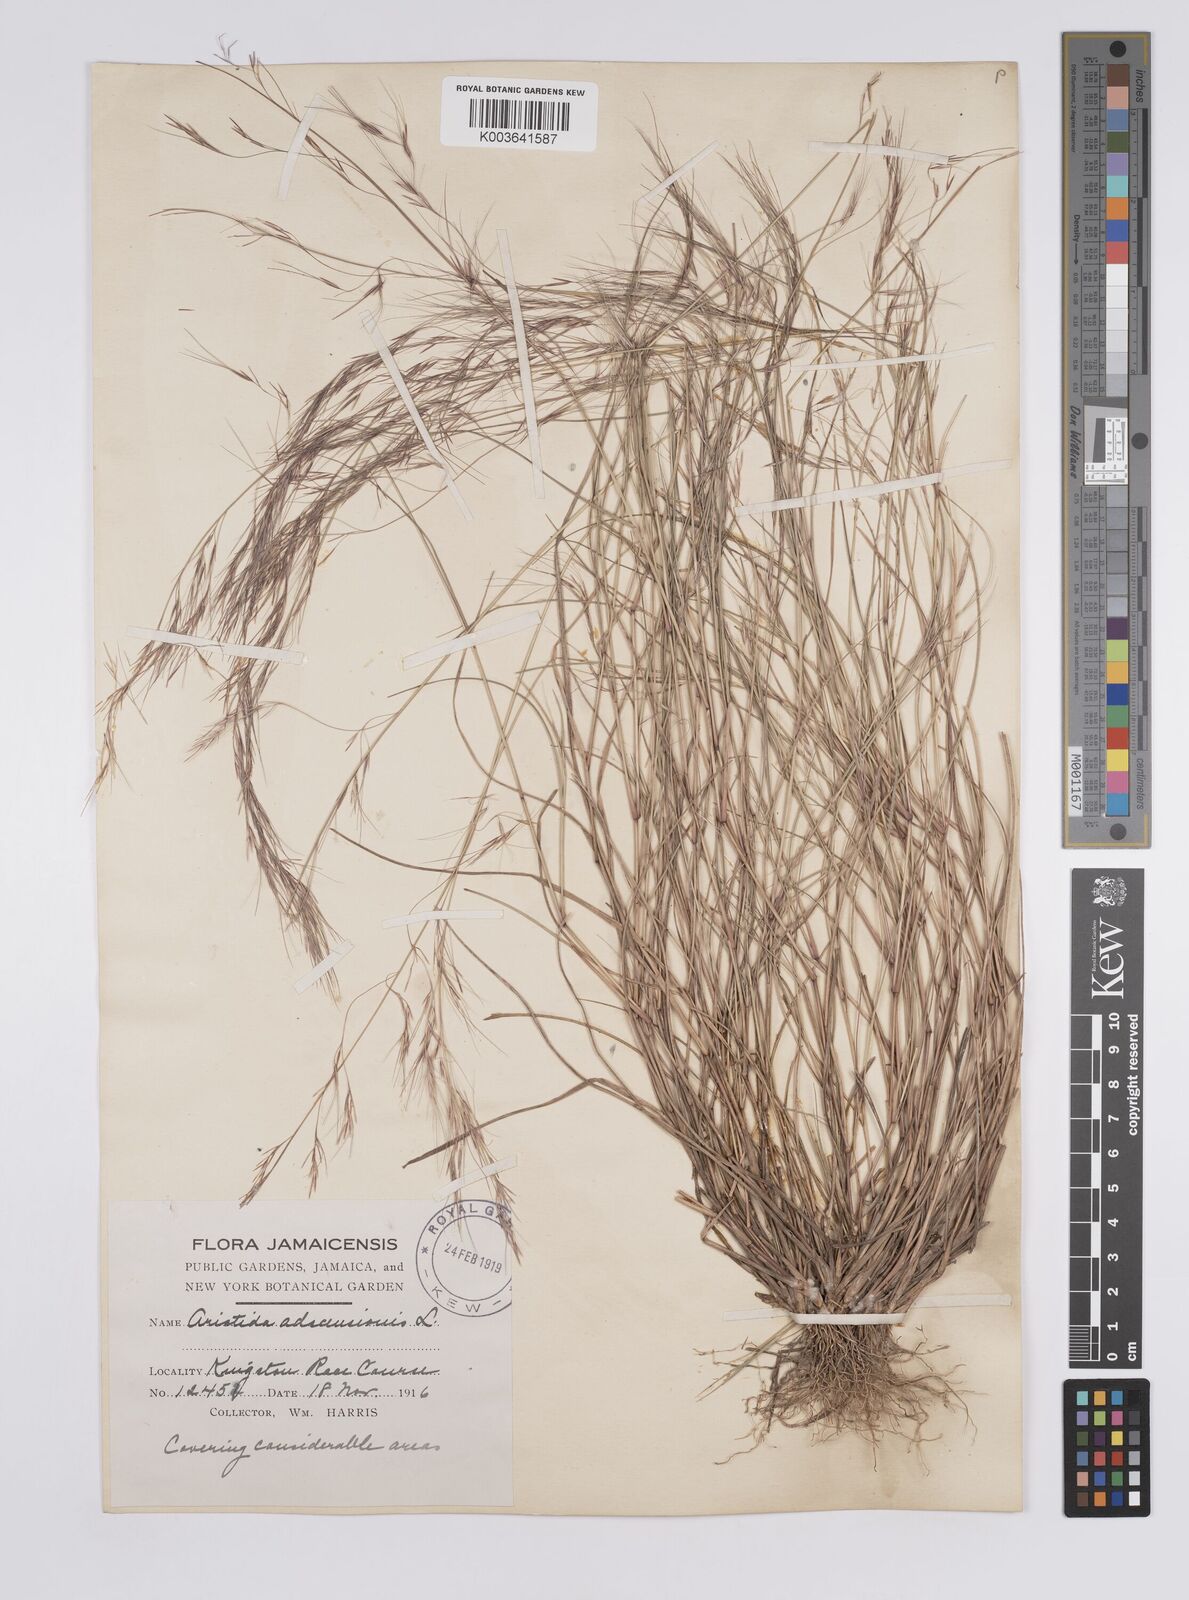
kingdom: Plantae
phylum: Tracheophyta
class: Liliopsida
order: Poales
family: Poaceae
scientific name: Poaceae
